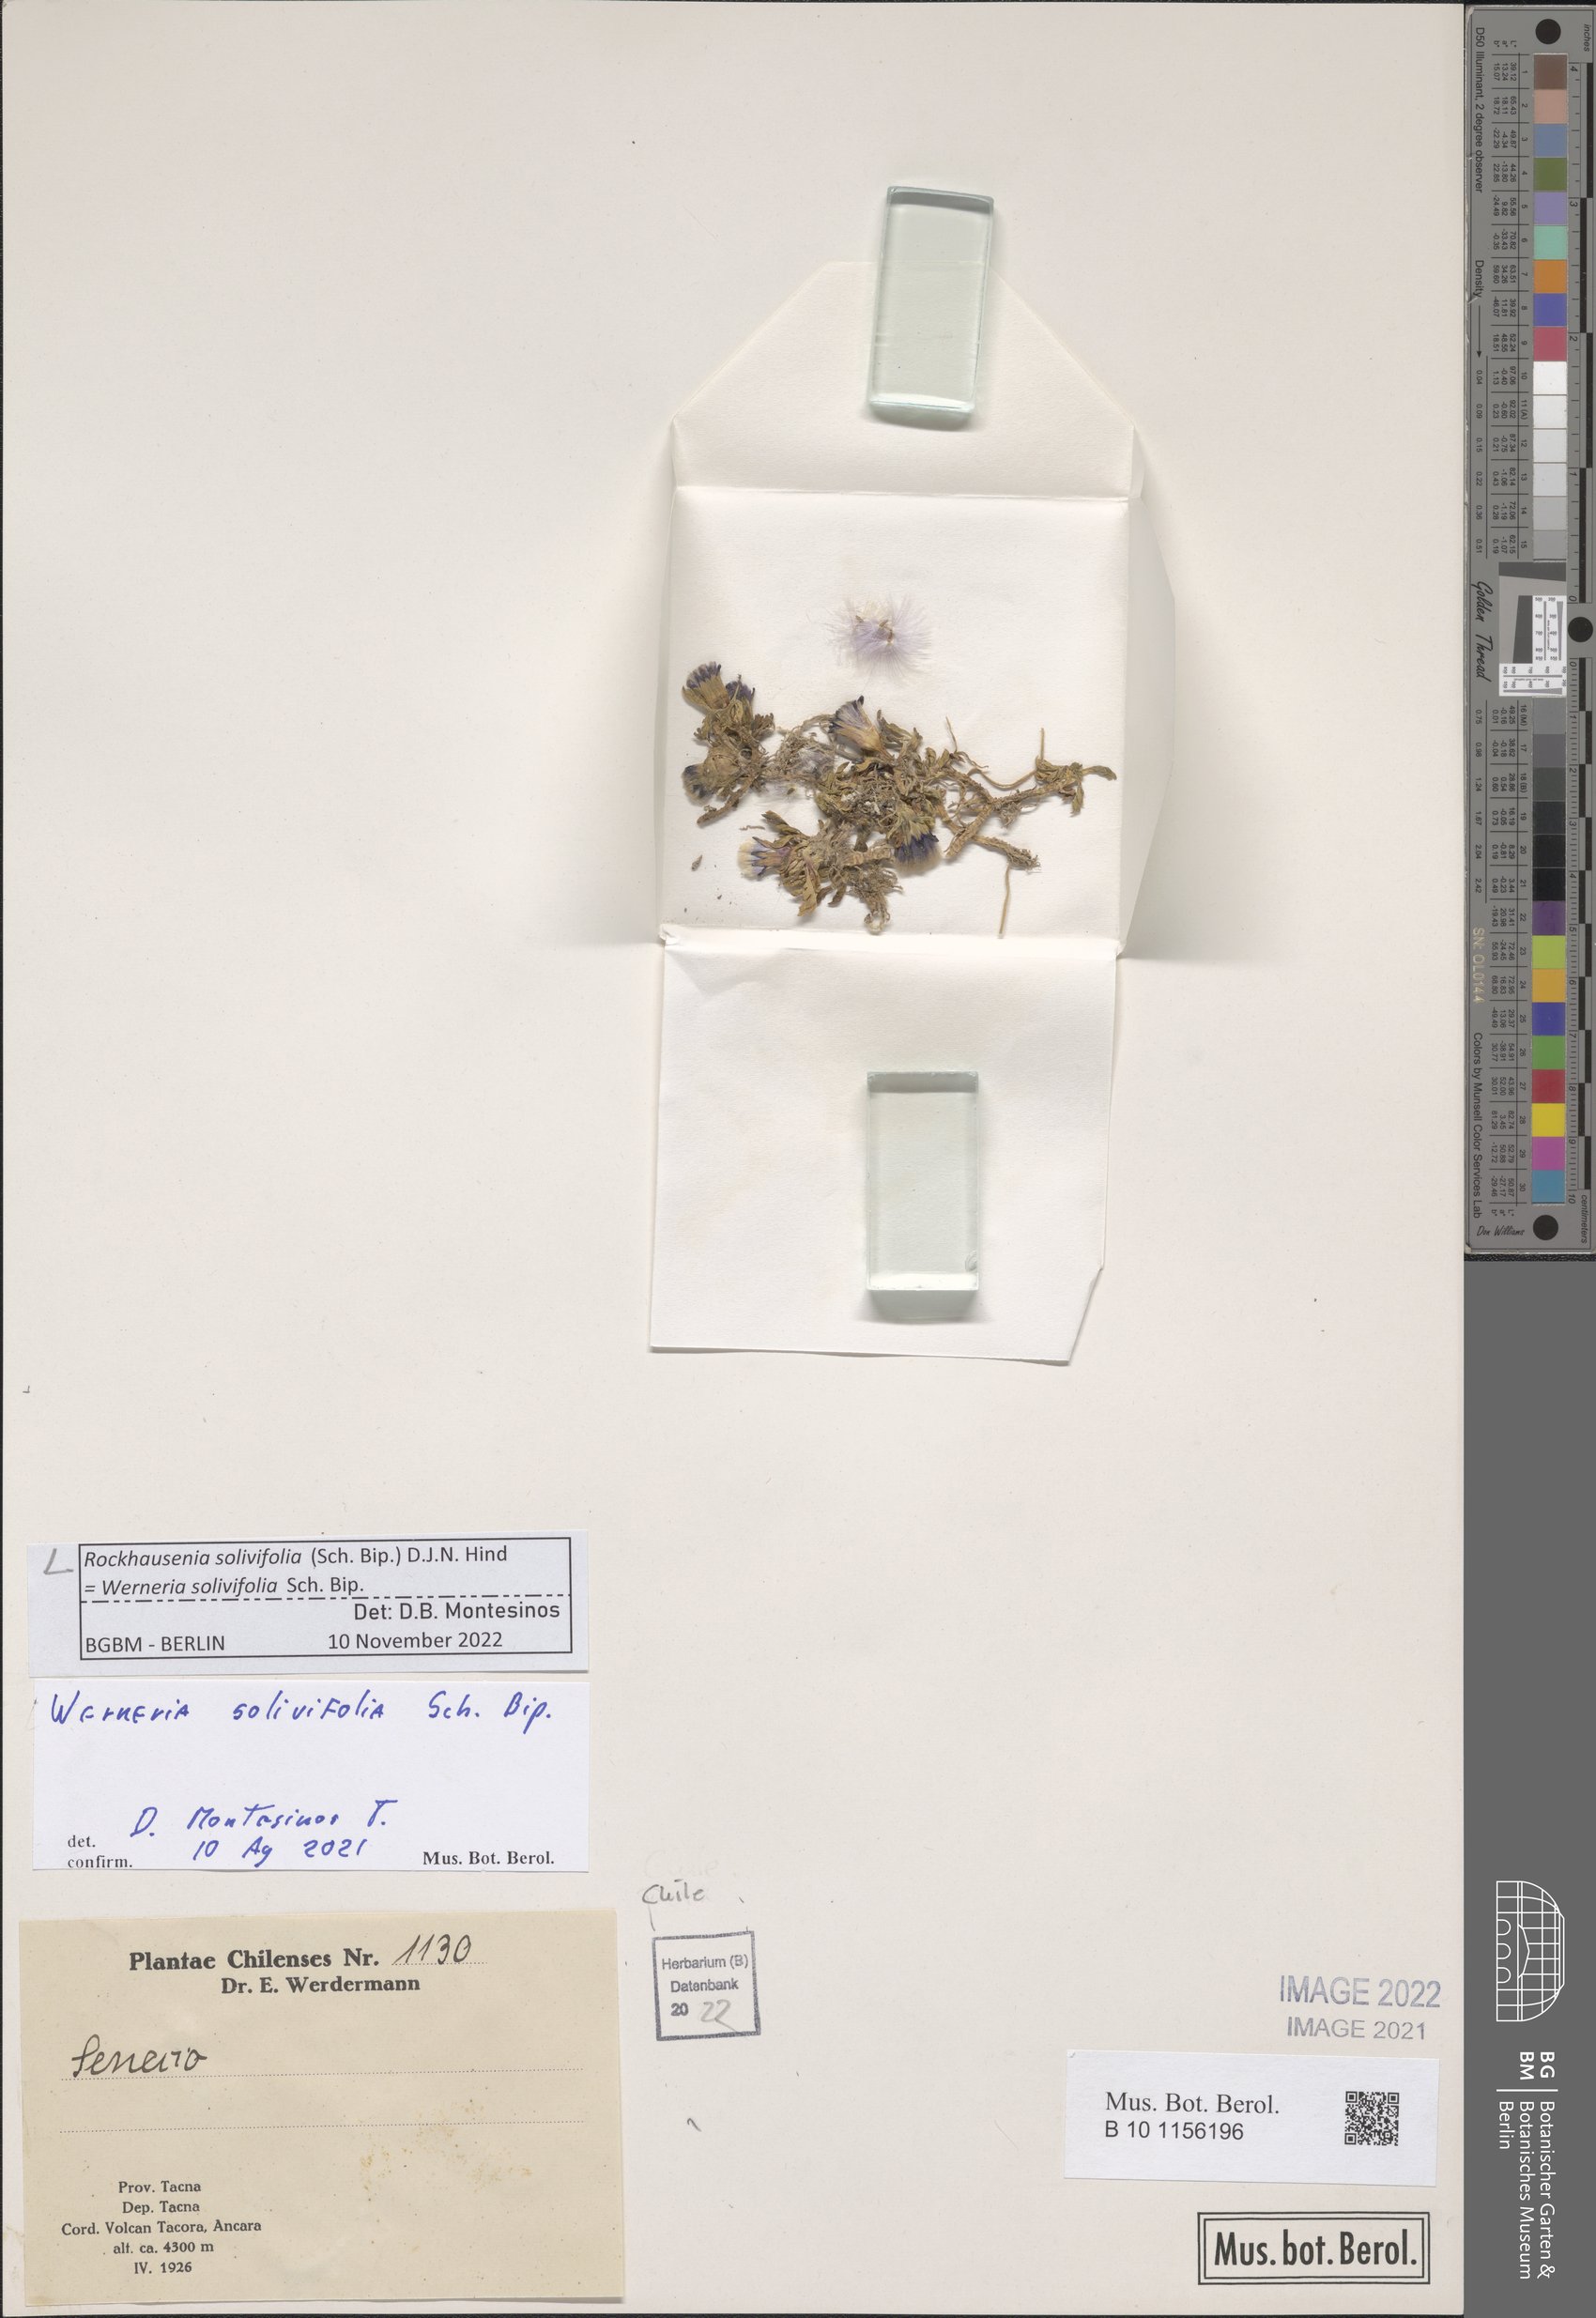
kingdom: Plantae
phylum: Tracheophyta
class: Magnoliopsida
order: Asterales
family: Asteraceae
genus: Rockhausenia
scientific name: Rockhausenia solivifolia
